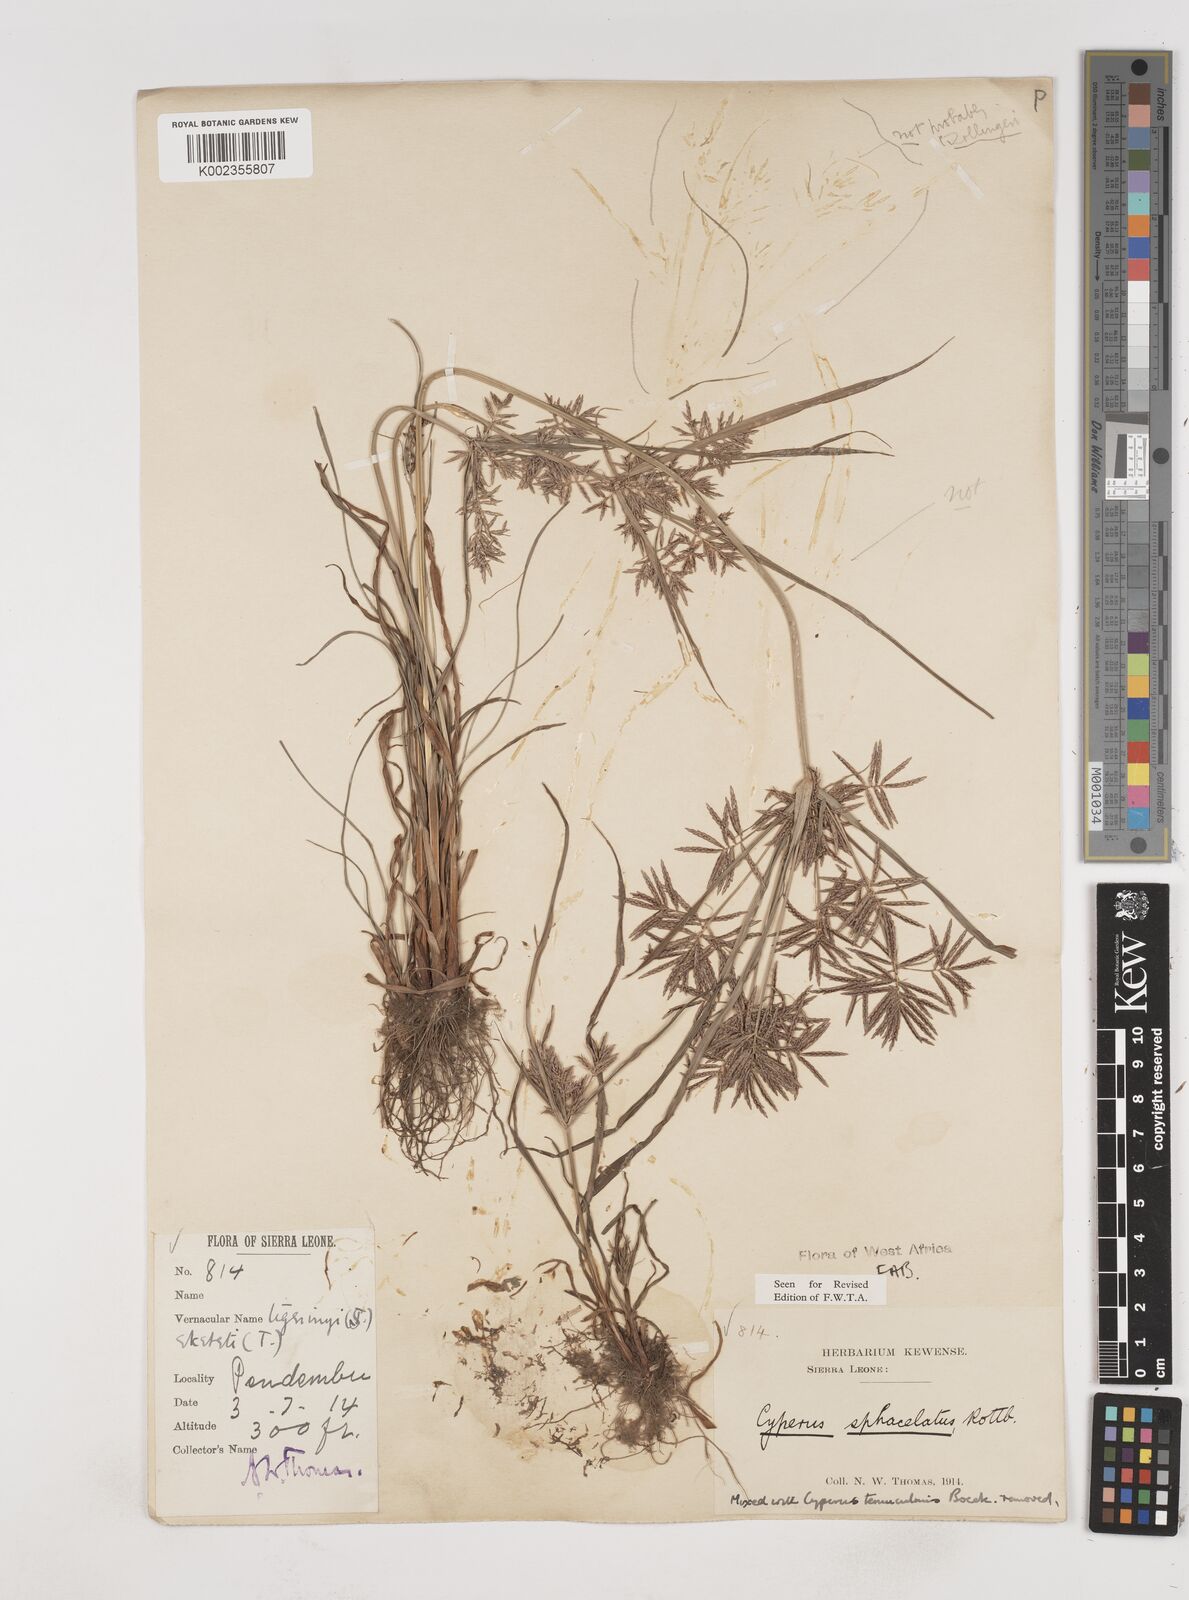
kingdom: Plantae
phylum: Tracheophyta
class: Liliopsida
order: Poales
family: Cyperaceae
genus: Cyperus
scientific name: Cyperus sphacelatus
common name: Roadside flatsedge
